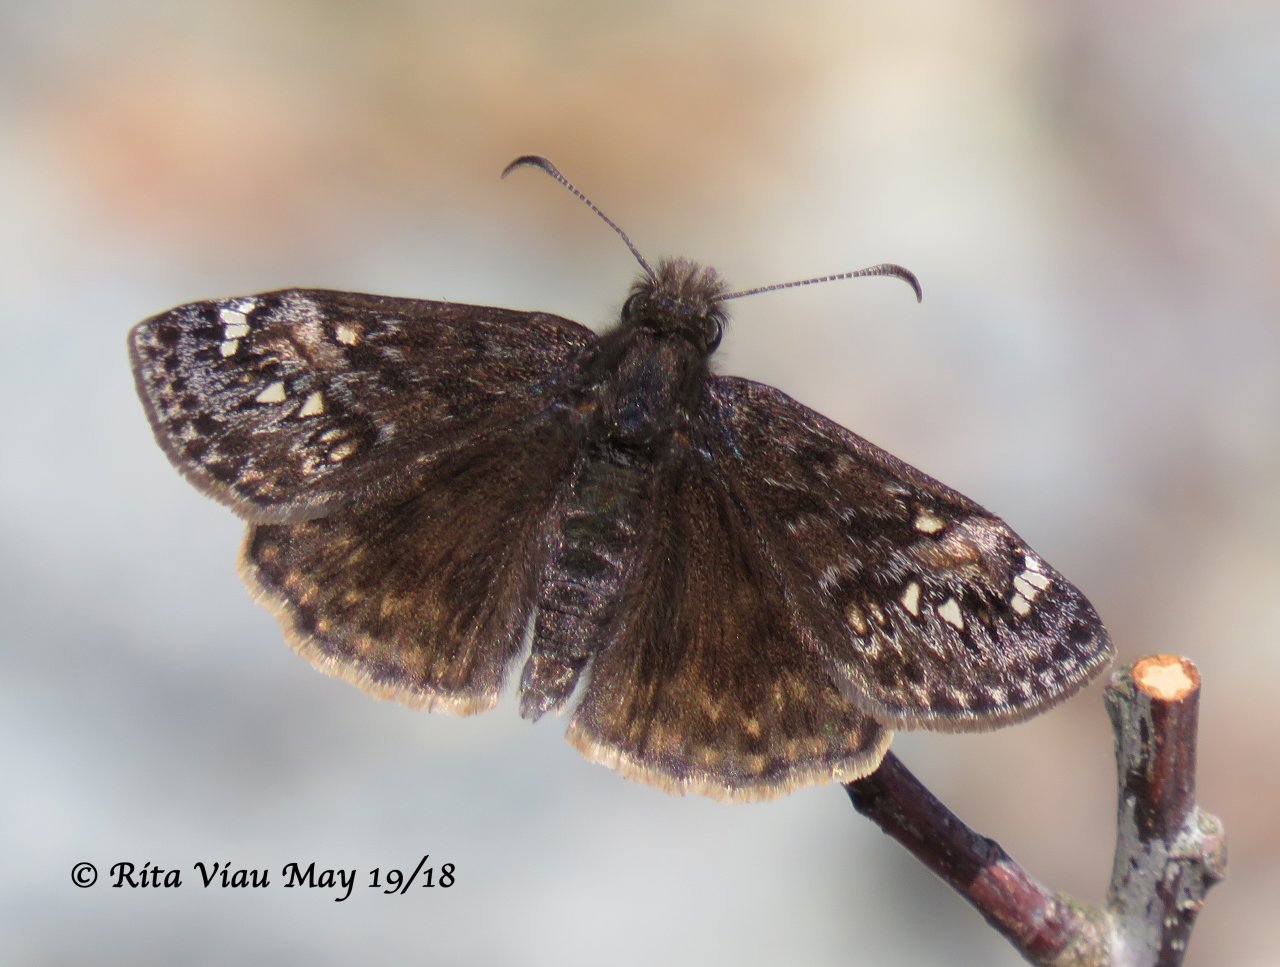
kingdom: Animalia
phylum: Arthropoda
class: Insecta
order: Lepidoptera
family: Hesperiidae
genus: Gesta
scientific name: Gesta
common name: Juvenal's Duskywing
